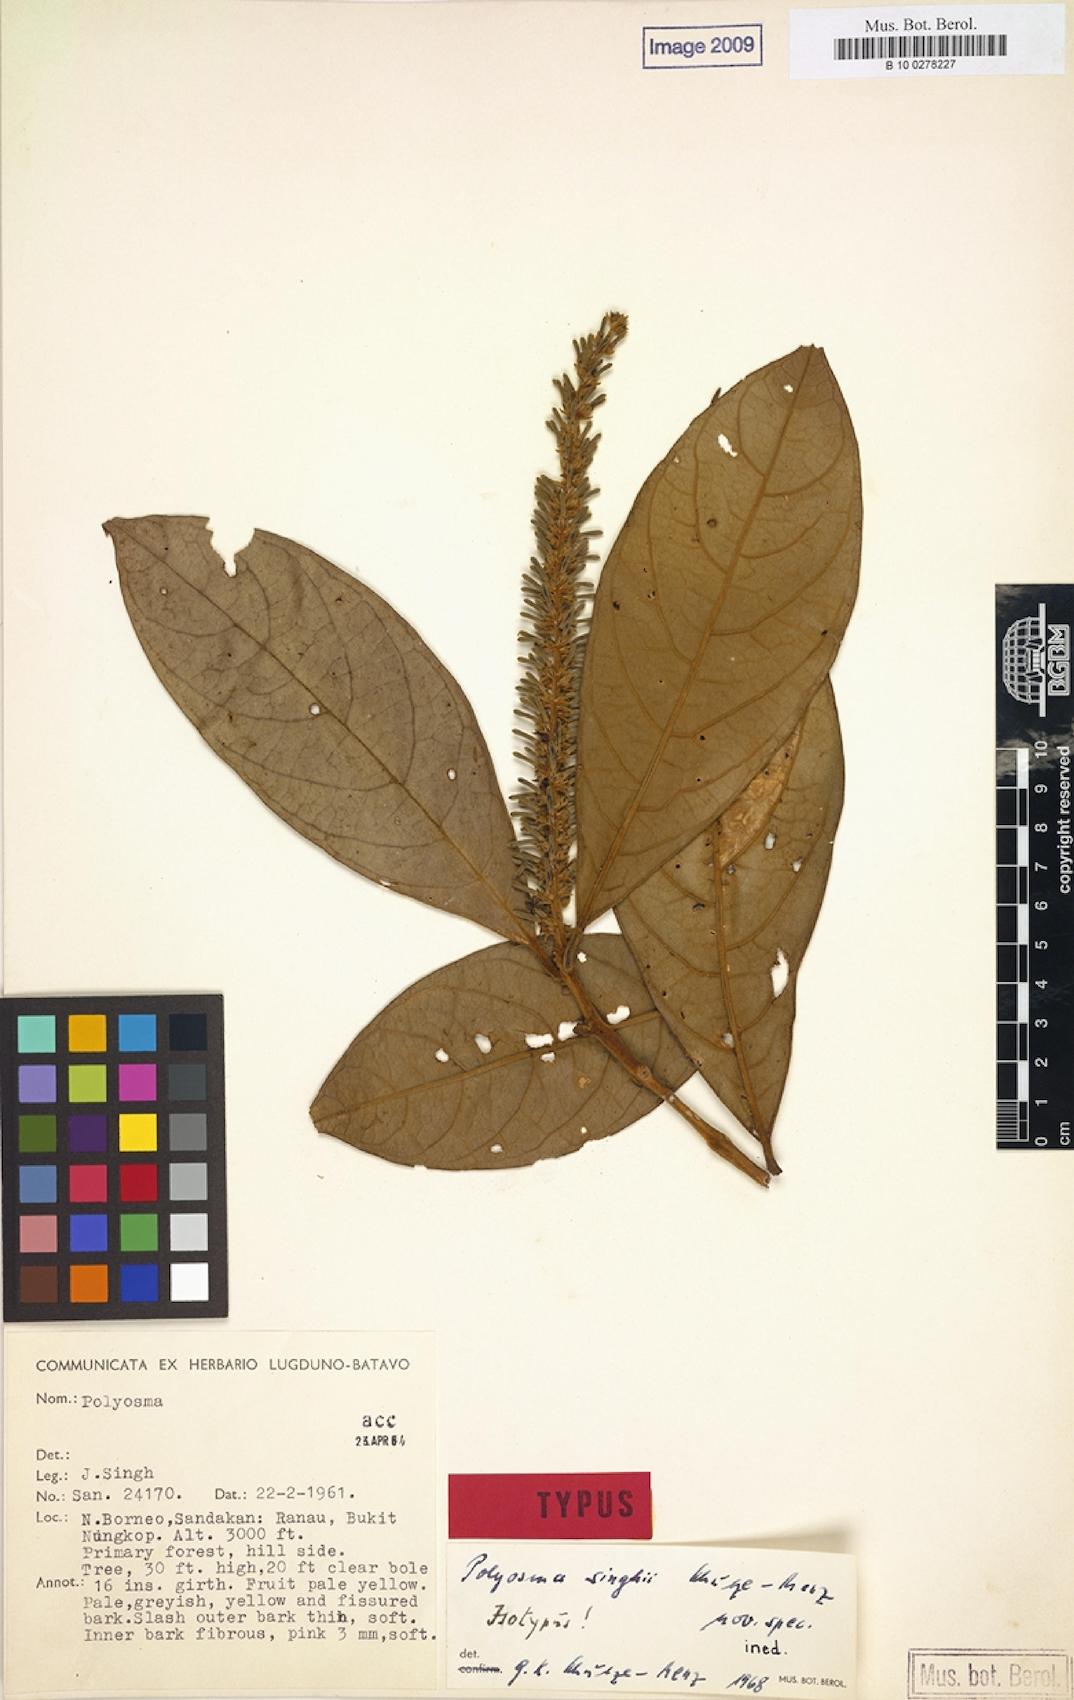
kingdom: Plantae
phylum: Tracheophyta
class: Magnoliopsida
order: Escalloniales
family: Escalloniaceae
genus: Polyosma
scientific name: Polyosma
